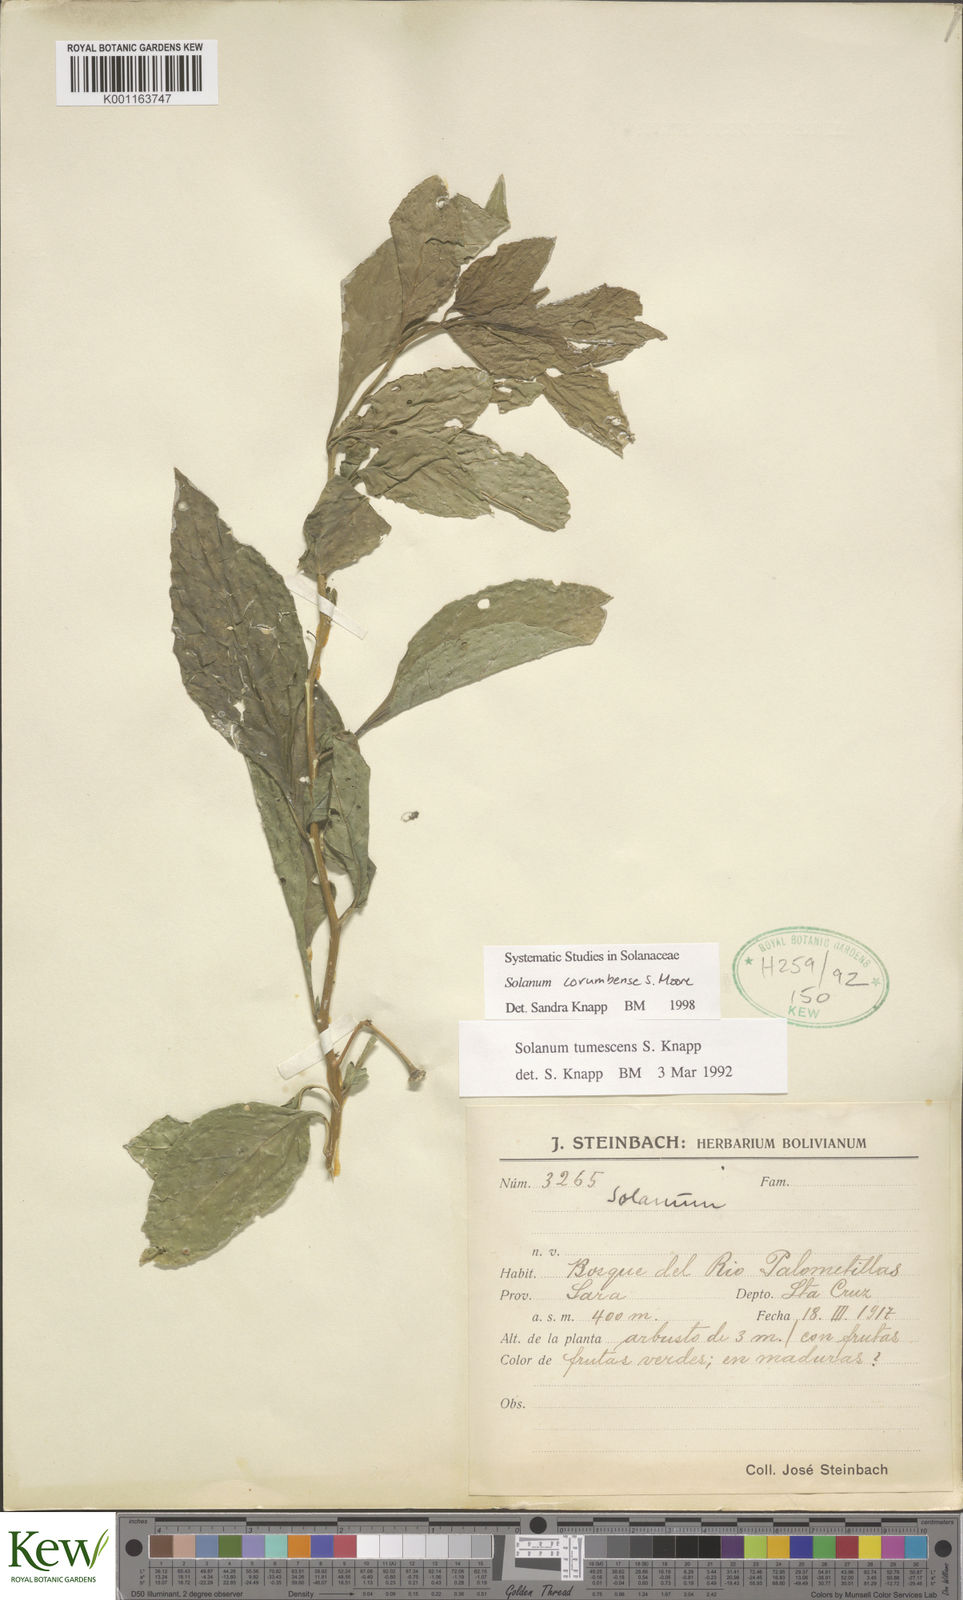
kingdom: Plantae
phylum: Tracheophyta
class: Magnoliopsida
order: Solanales
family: Solanaceae
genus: Solanum
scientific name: Solanum corumbense
